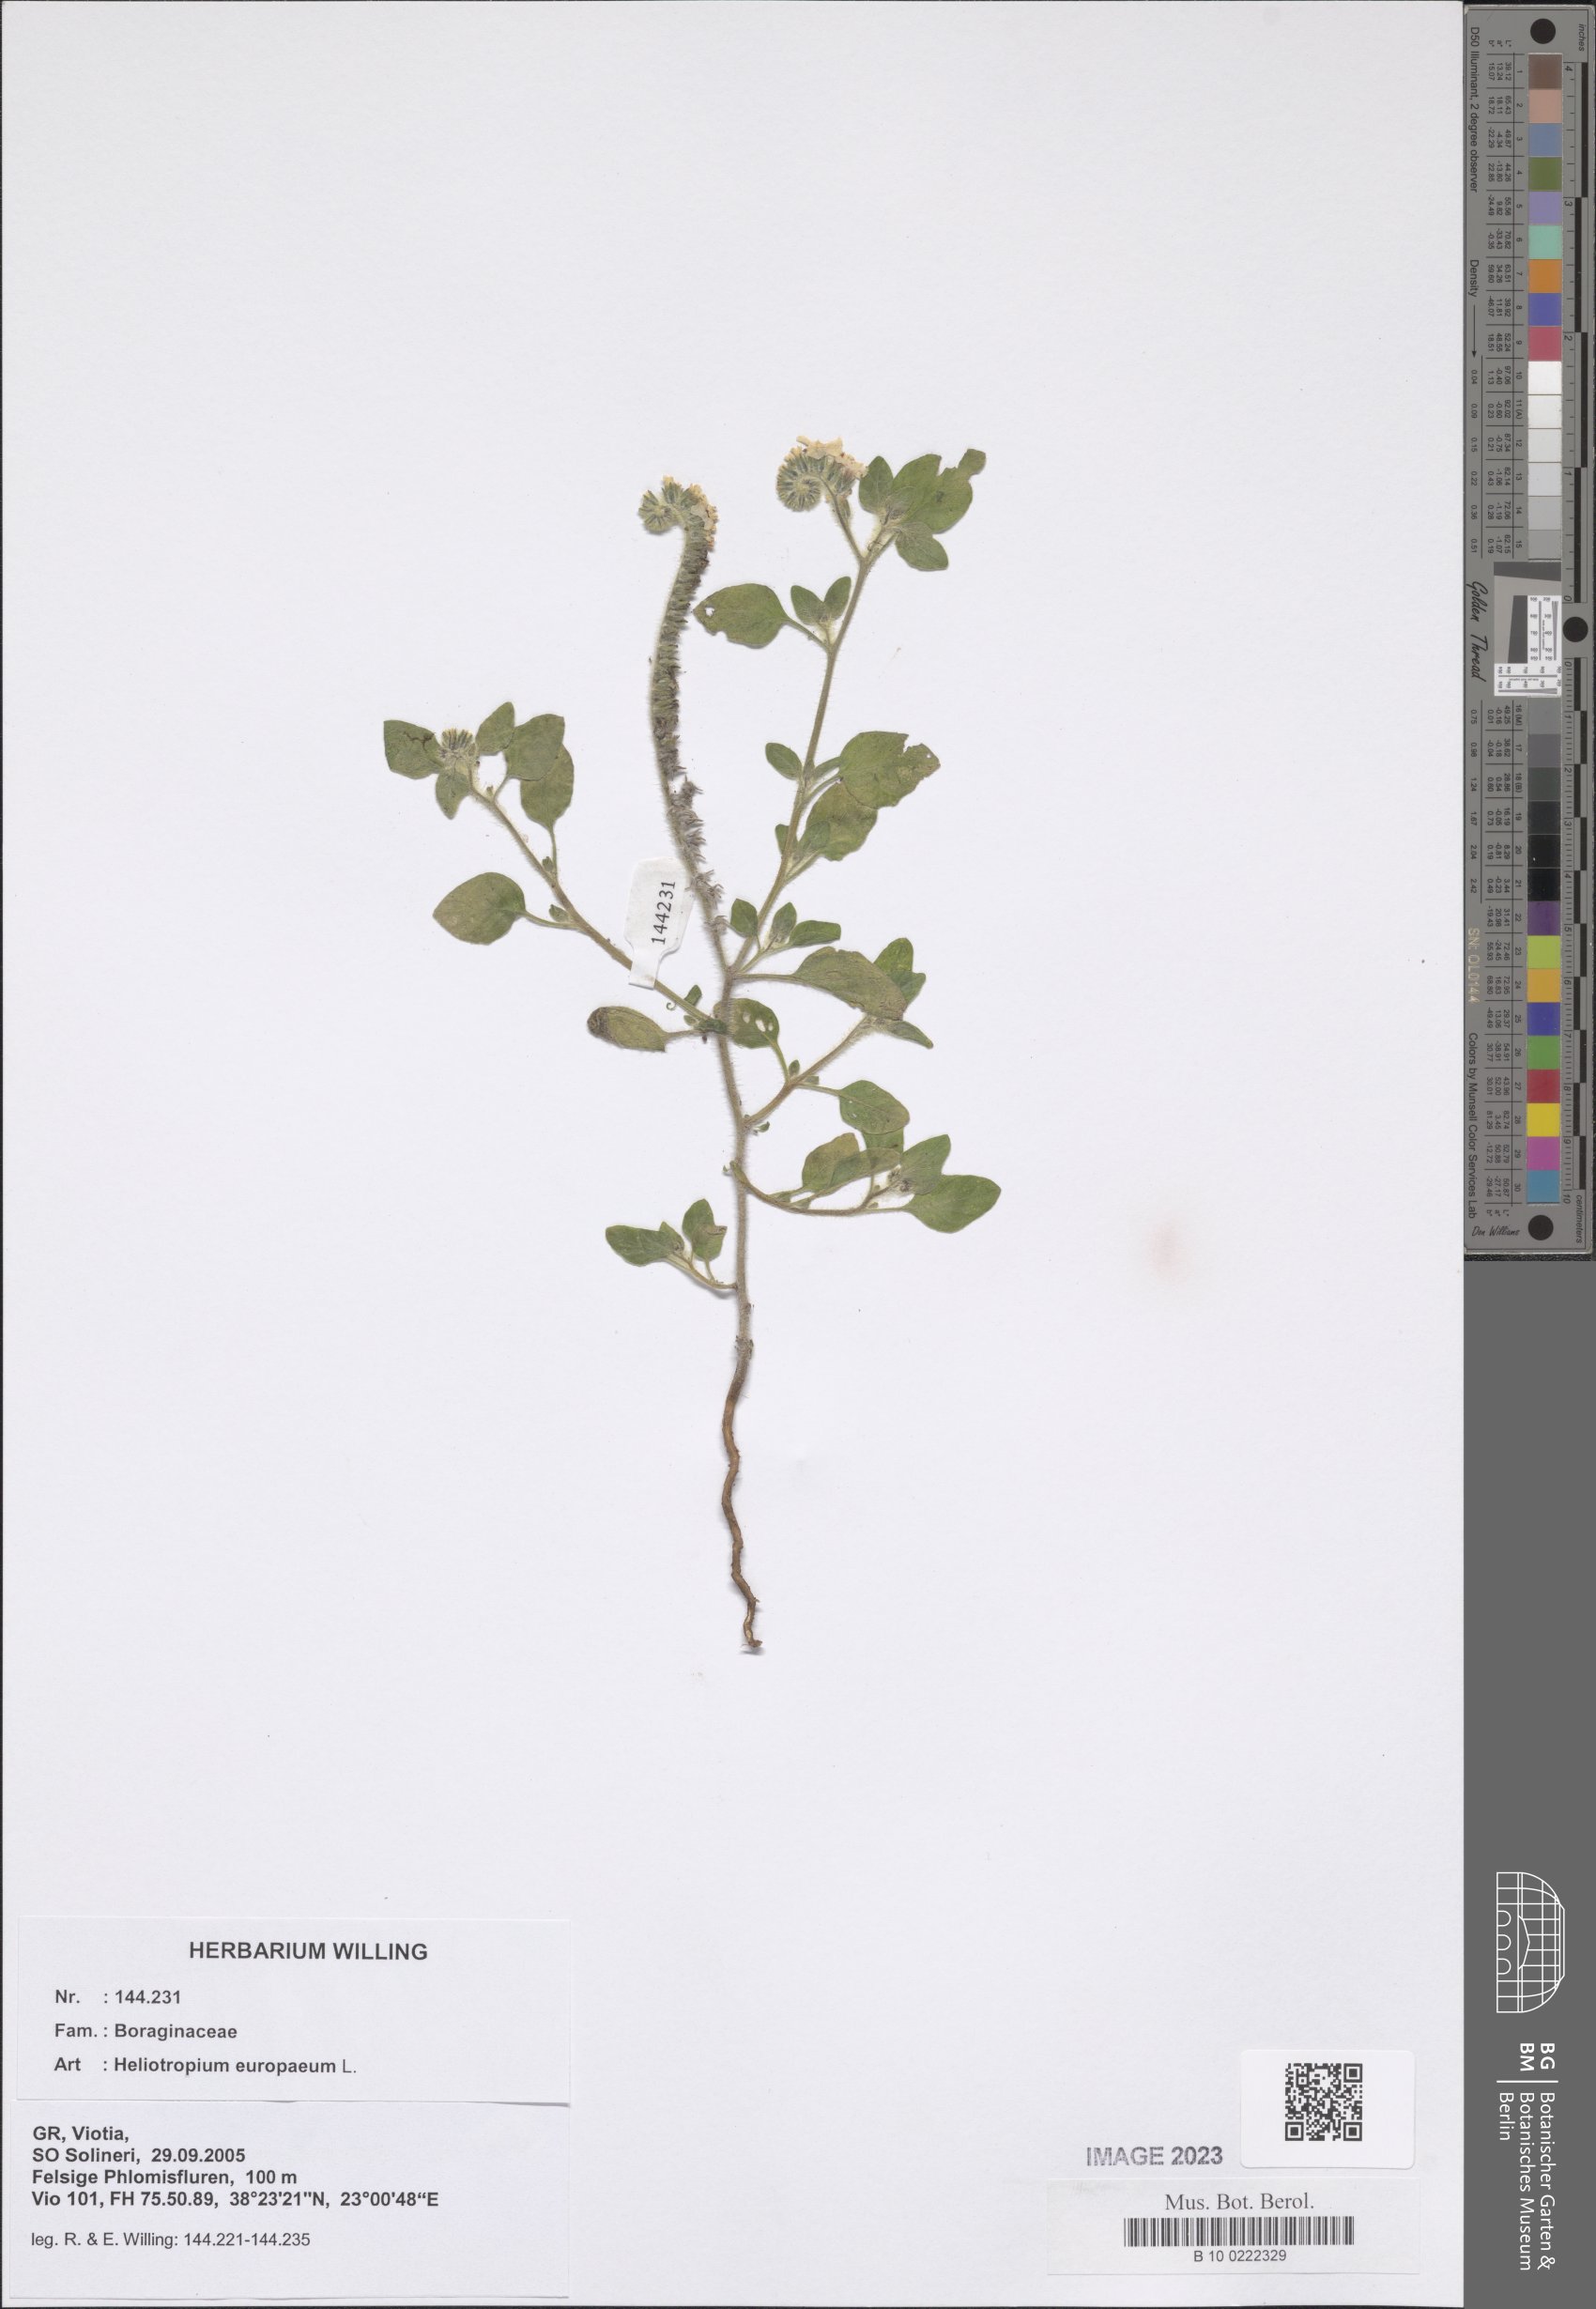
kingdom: Plantae
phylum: Tracheophyta
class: Magnoliopsida
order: Boraginales
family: Heliotropiaceae
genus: Heliotropium
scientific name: Heliotropium europaeum
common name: European heliotrope
